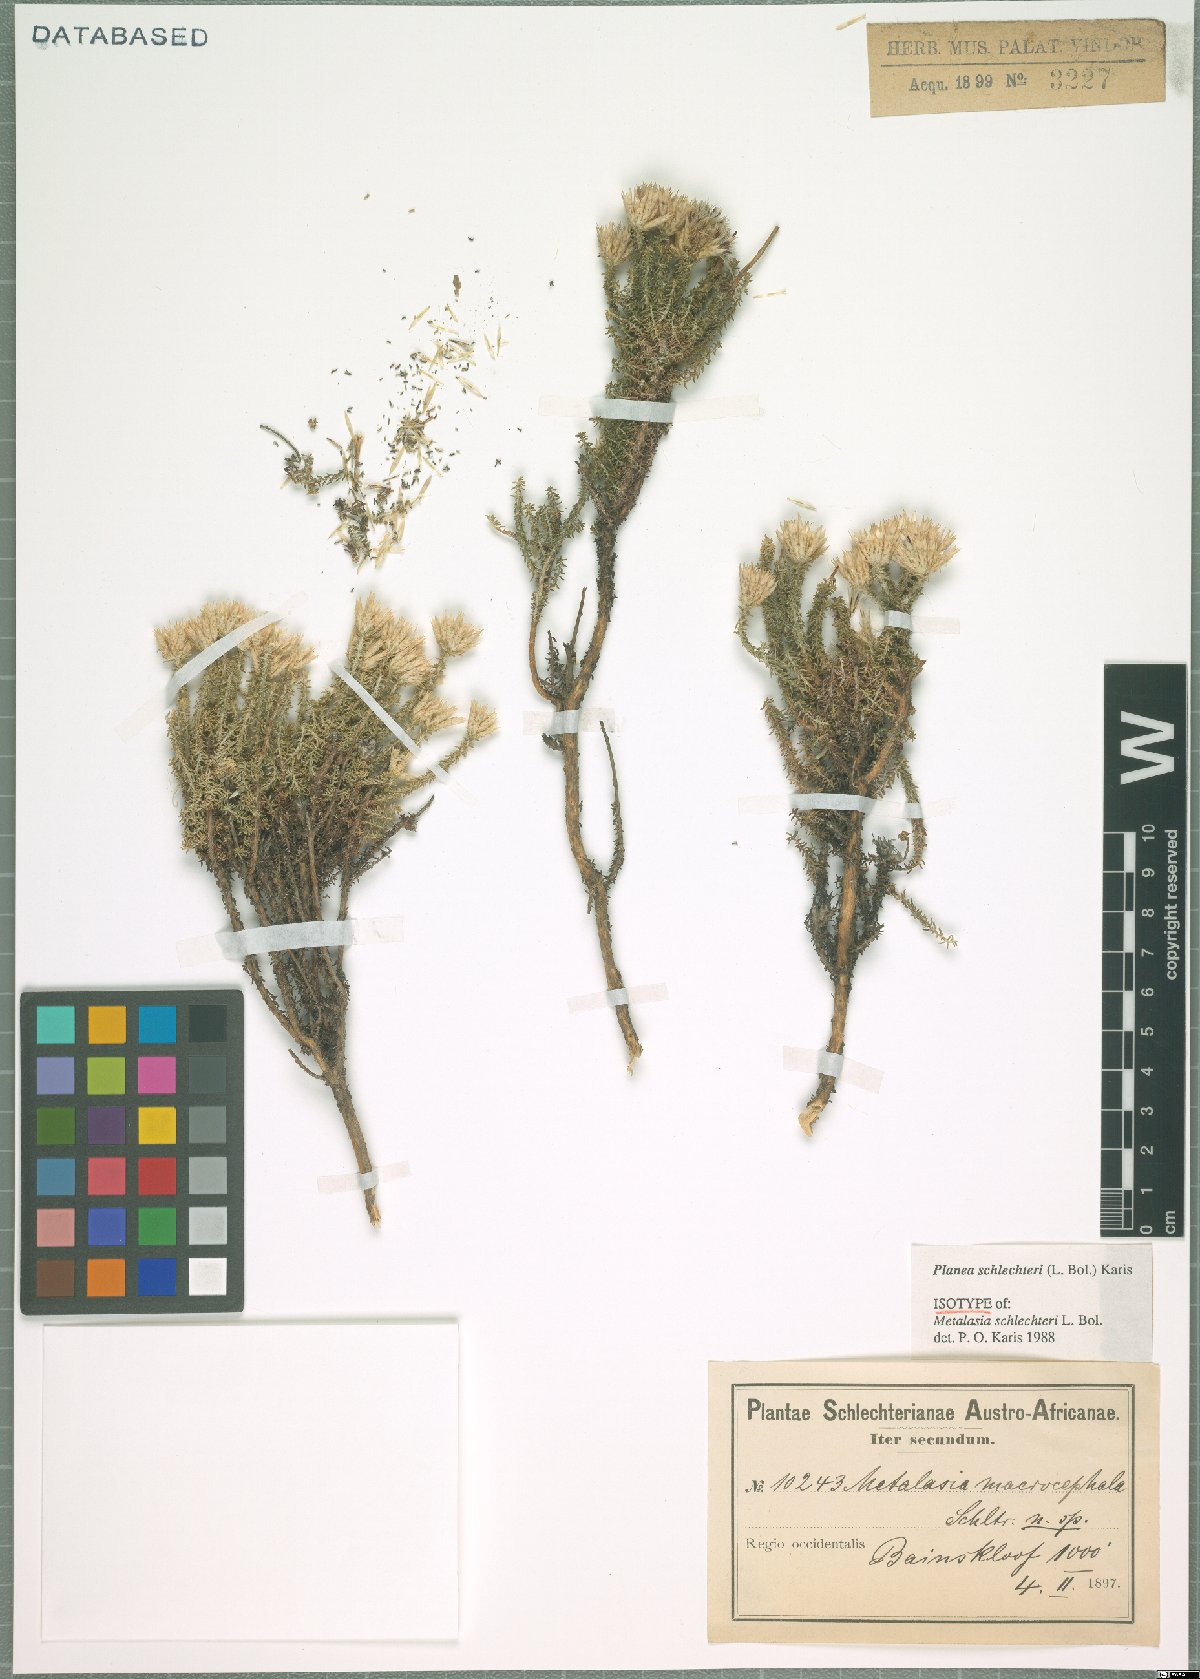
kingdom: Plantae
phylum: Tracheophyta
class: Magnoliopsida
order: Asterales
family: Asteraceae
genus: Planea
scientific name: Planea schlechteri
